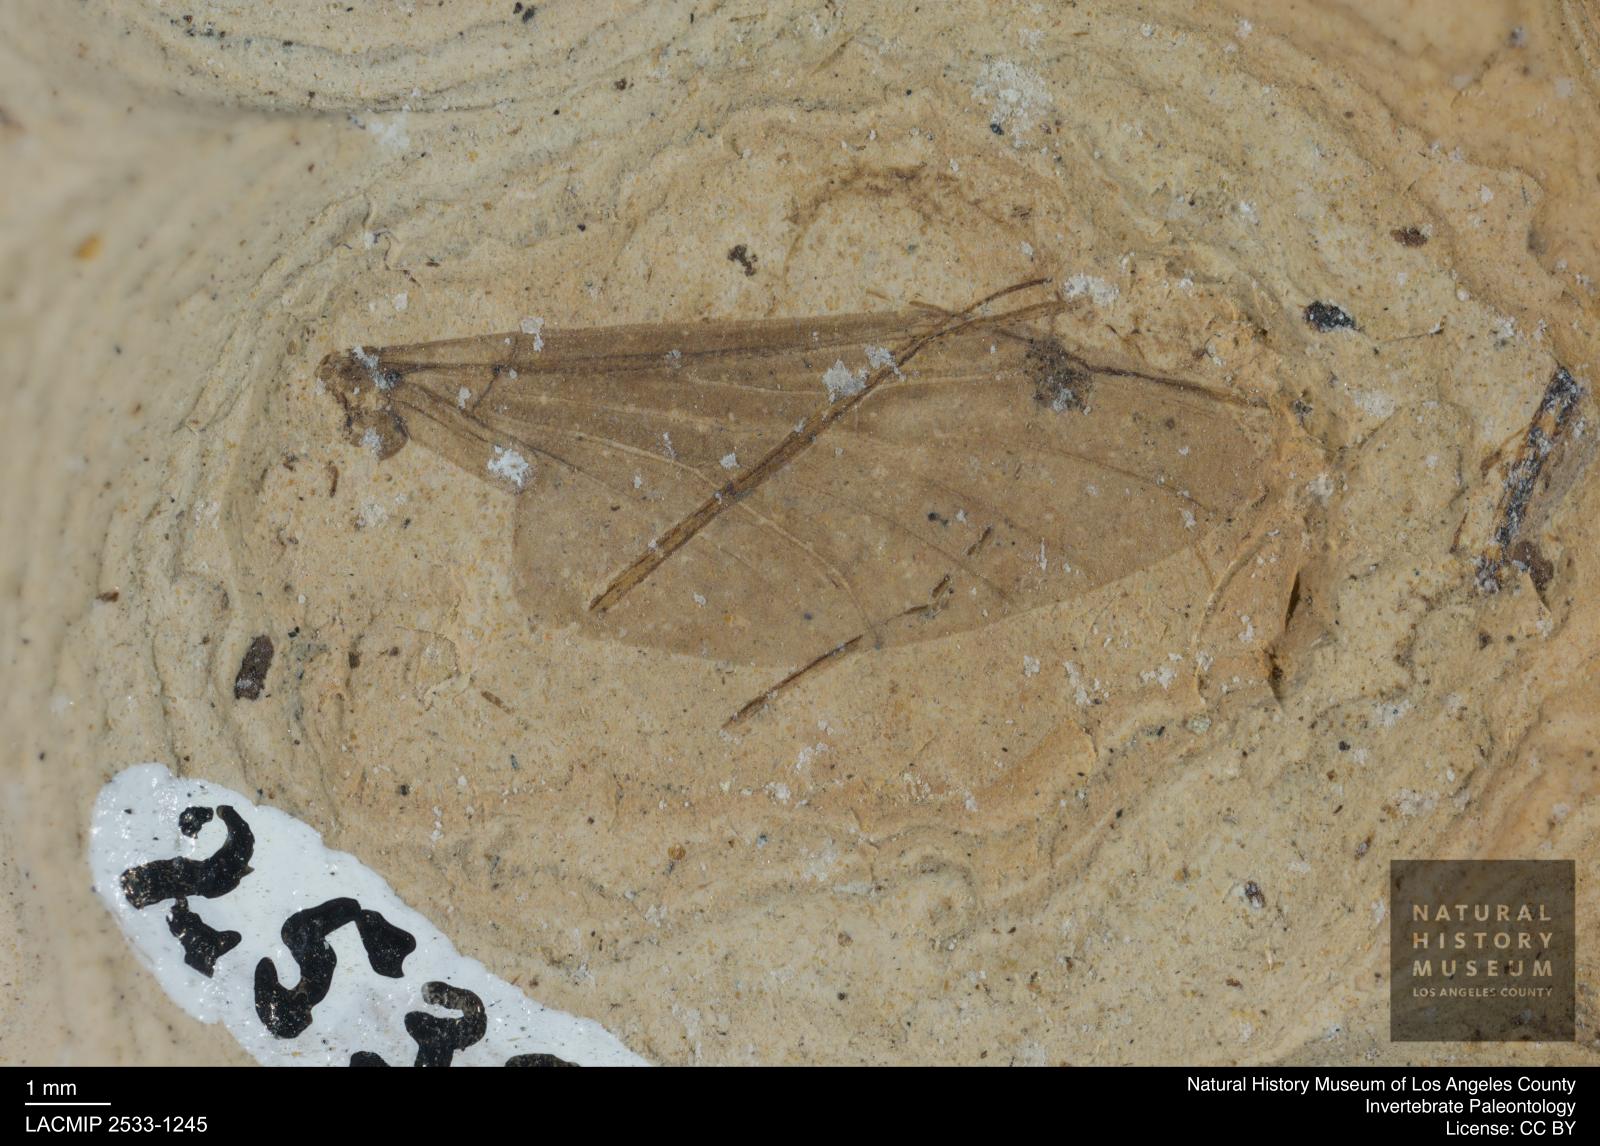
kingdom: Animalia
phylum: Arthropoda
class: Insecta
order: Diptera
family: Bibionidae
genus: Plecia
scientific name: Plecia
